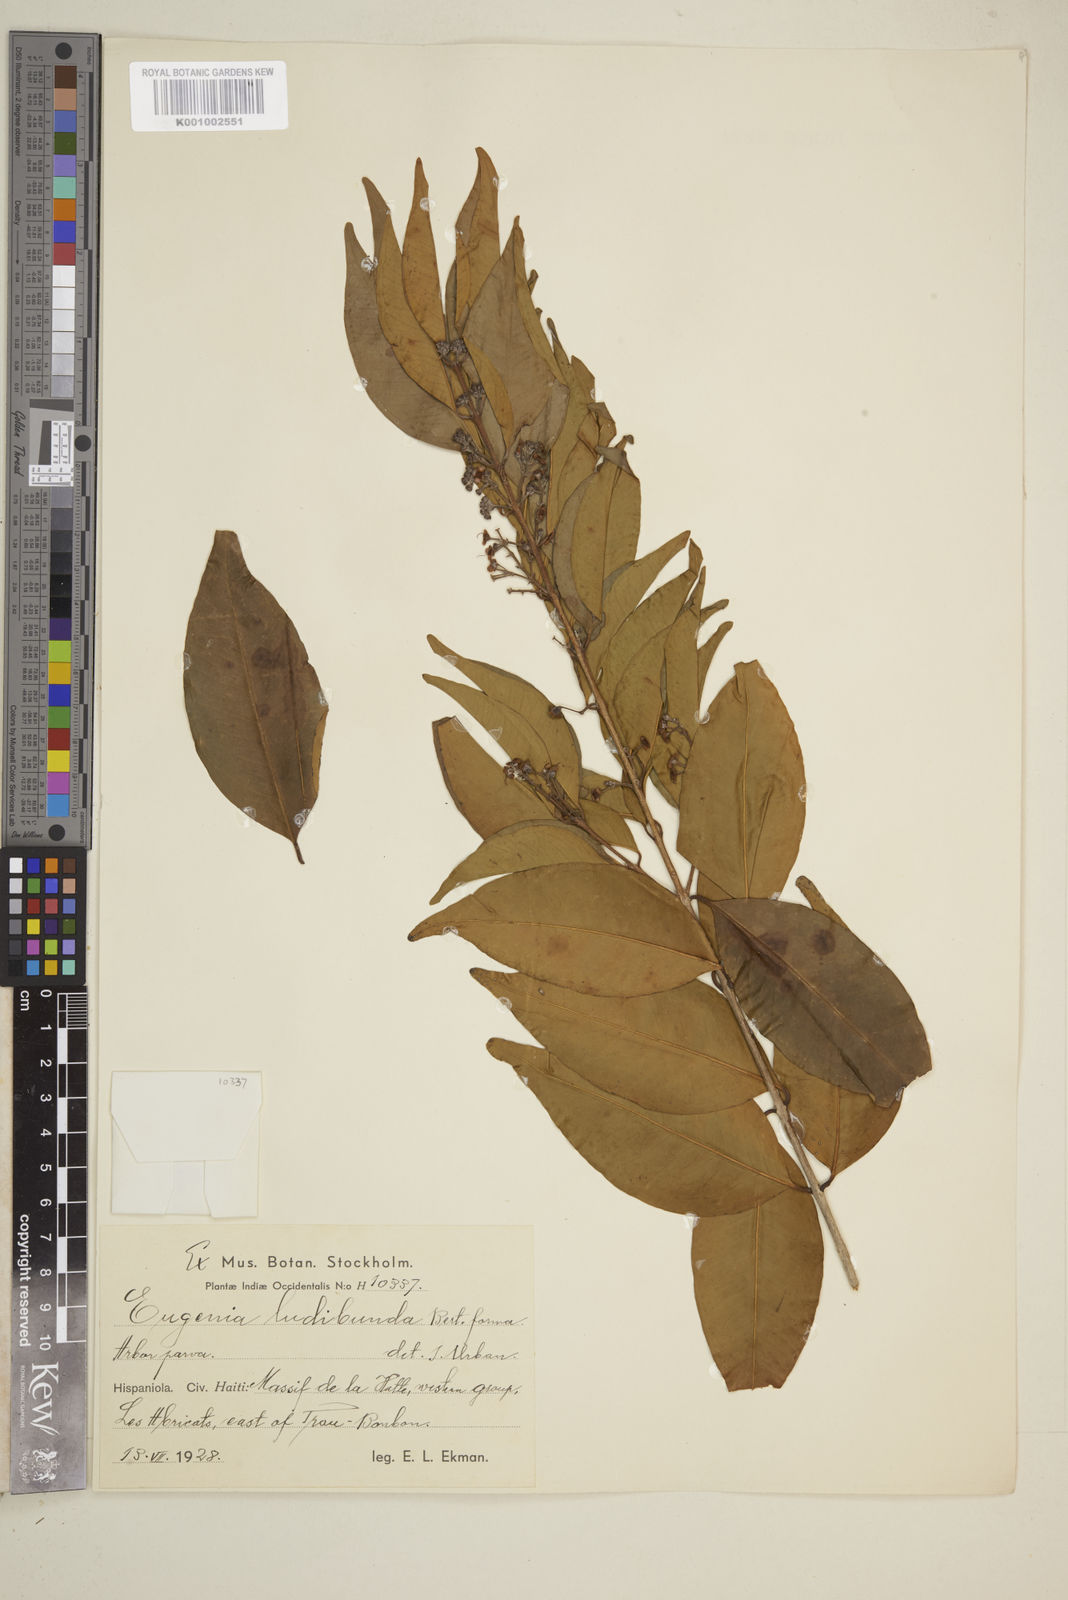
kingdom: Plantae
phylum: Tracheophyta
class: Magnoliopsida
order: Myrtales
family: Myrtaceae
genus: Eugenia
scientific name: Eugenia biflora
